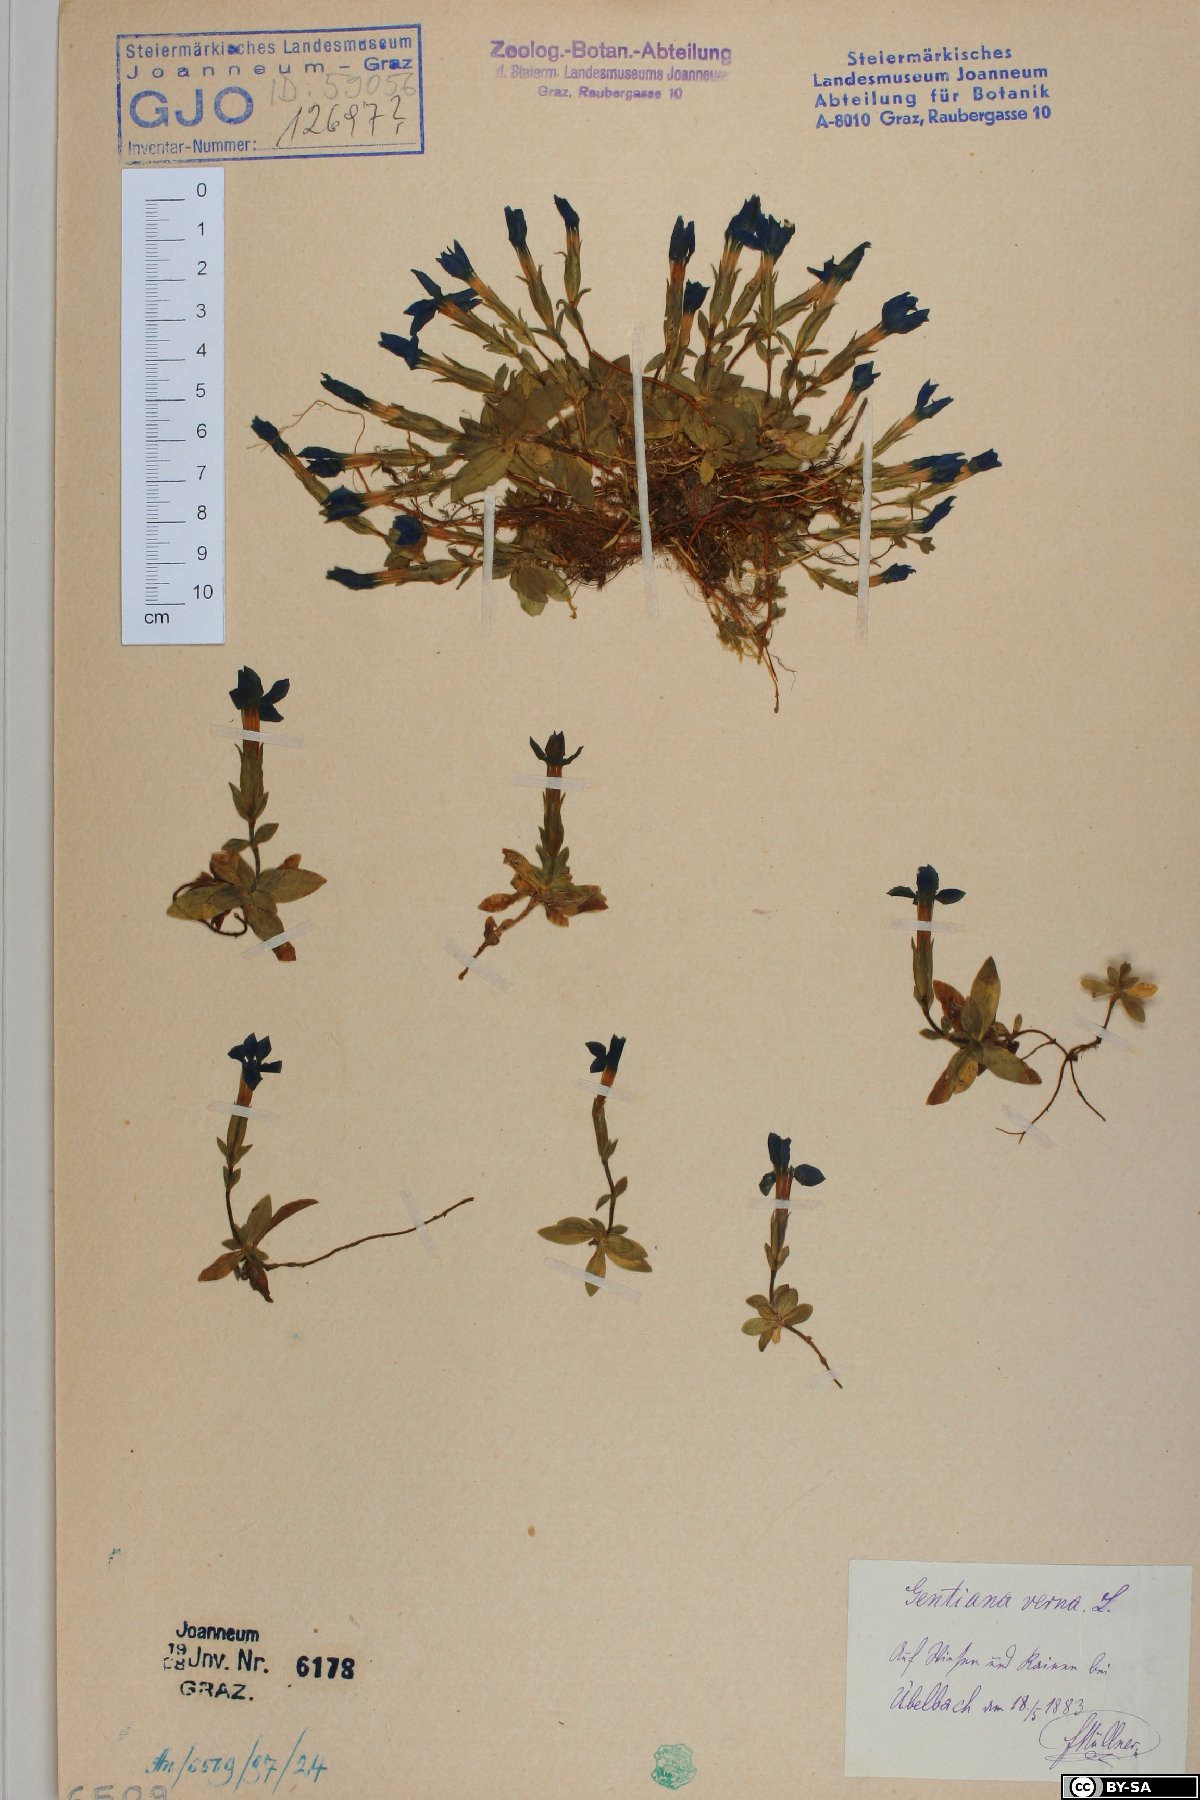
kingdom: Plantae
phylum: Tracheophyta
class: Magnoliopsida
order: Gentianales
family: Gentianaceae
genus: Gentiana
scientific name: Gentiana verna
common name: Spring gentian
